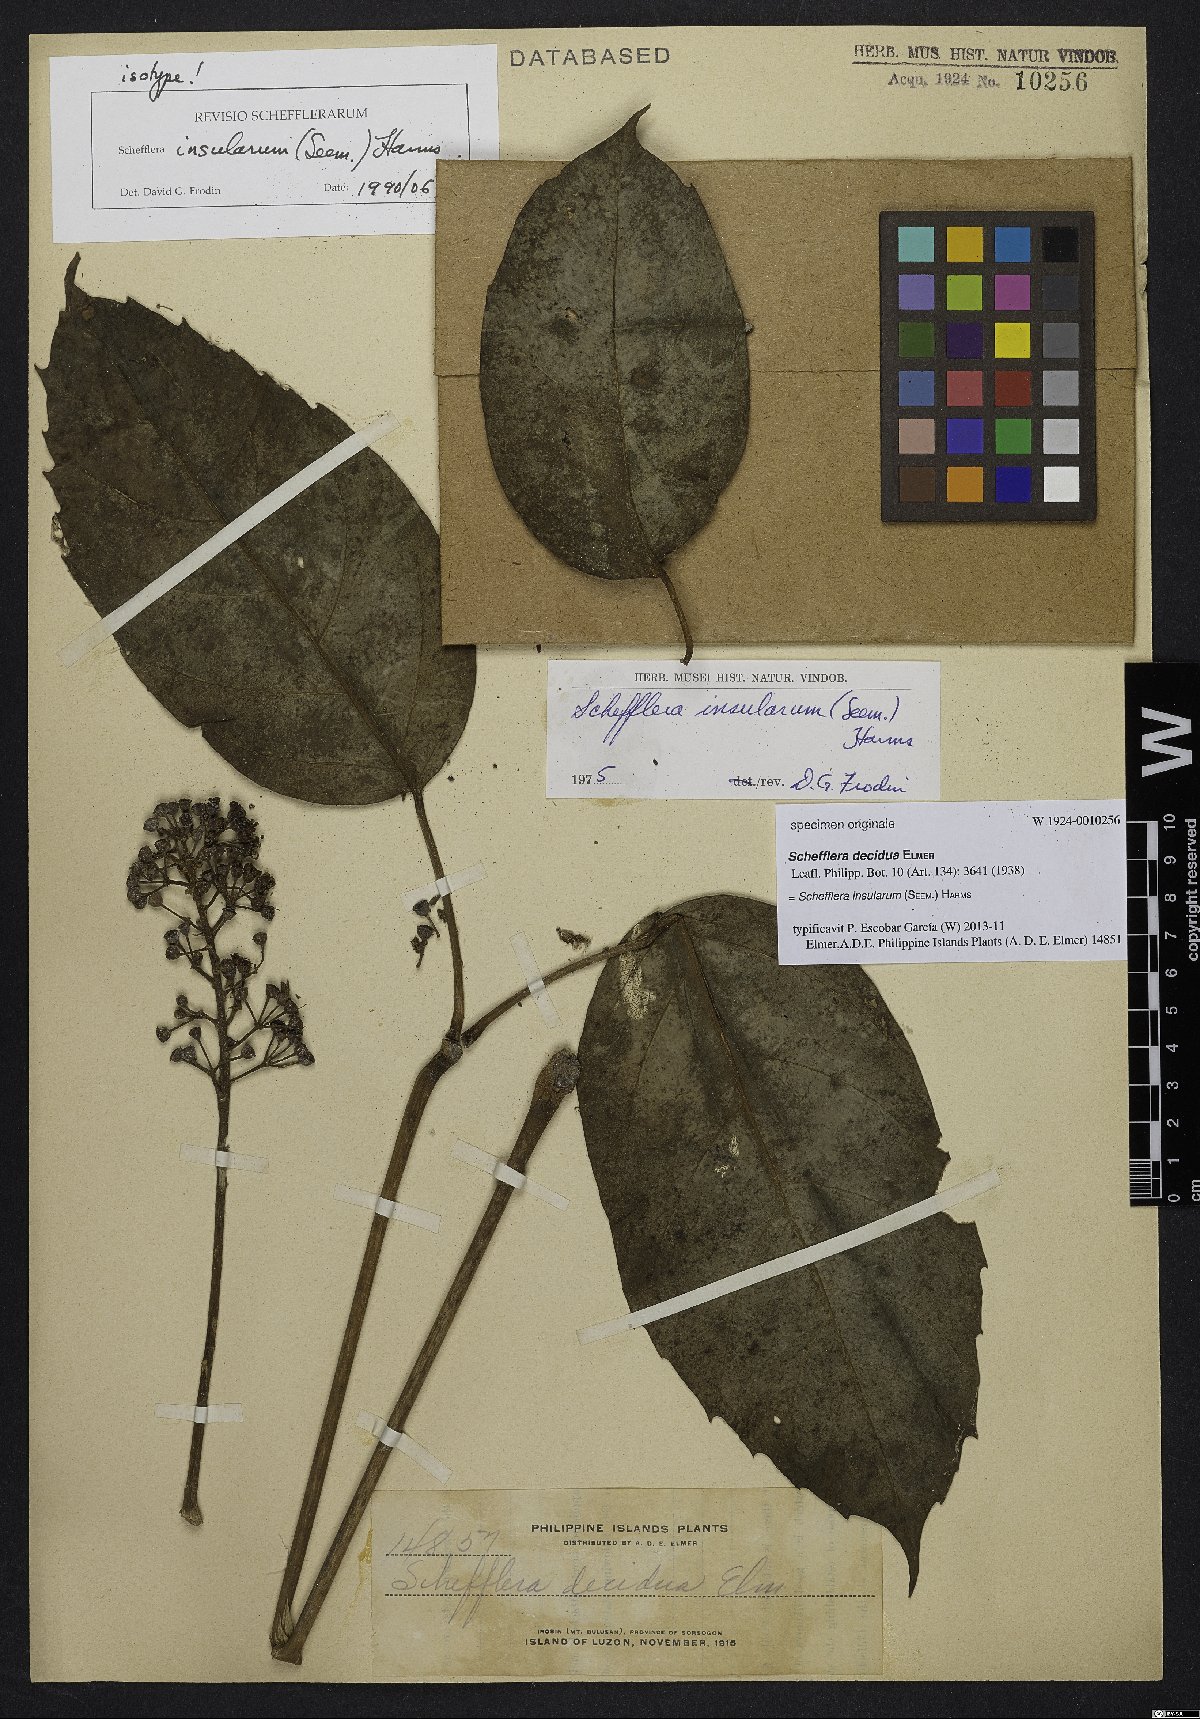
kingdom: Plantae
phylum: Tracheophyta
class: Magnoliopsida
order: Apiales
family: Araliaceae
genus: Heptapleurum
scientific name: Heptapleurum insularum
